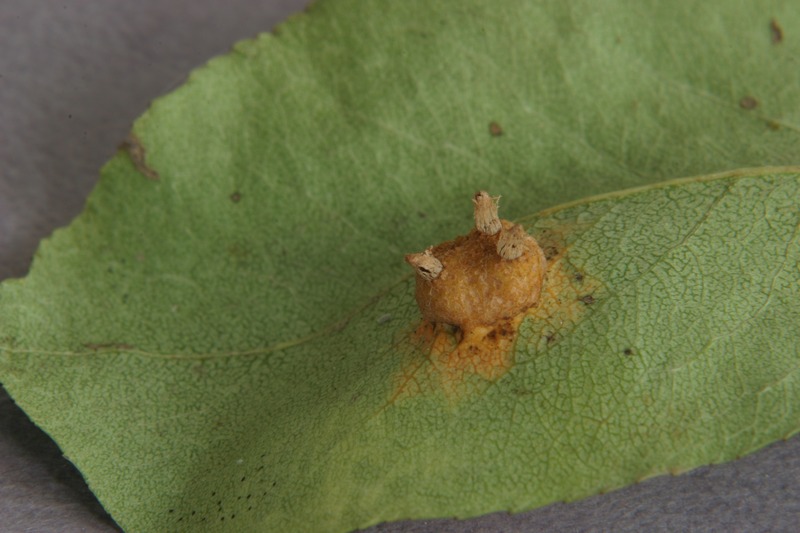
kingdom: Fungi
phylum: Basidiomycota
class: Pucciniomycetes
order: Pucciniales
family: Gymnosporangiaceae
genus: Gymnosporangium
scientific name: Gymnosporangium sabinae
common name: Pear trellis rust fungus
